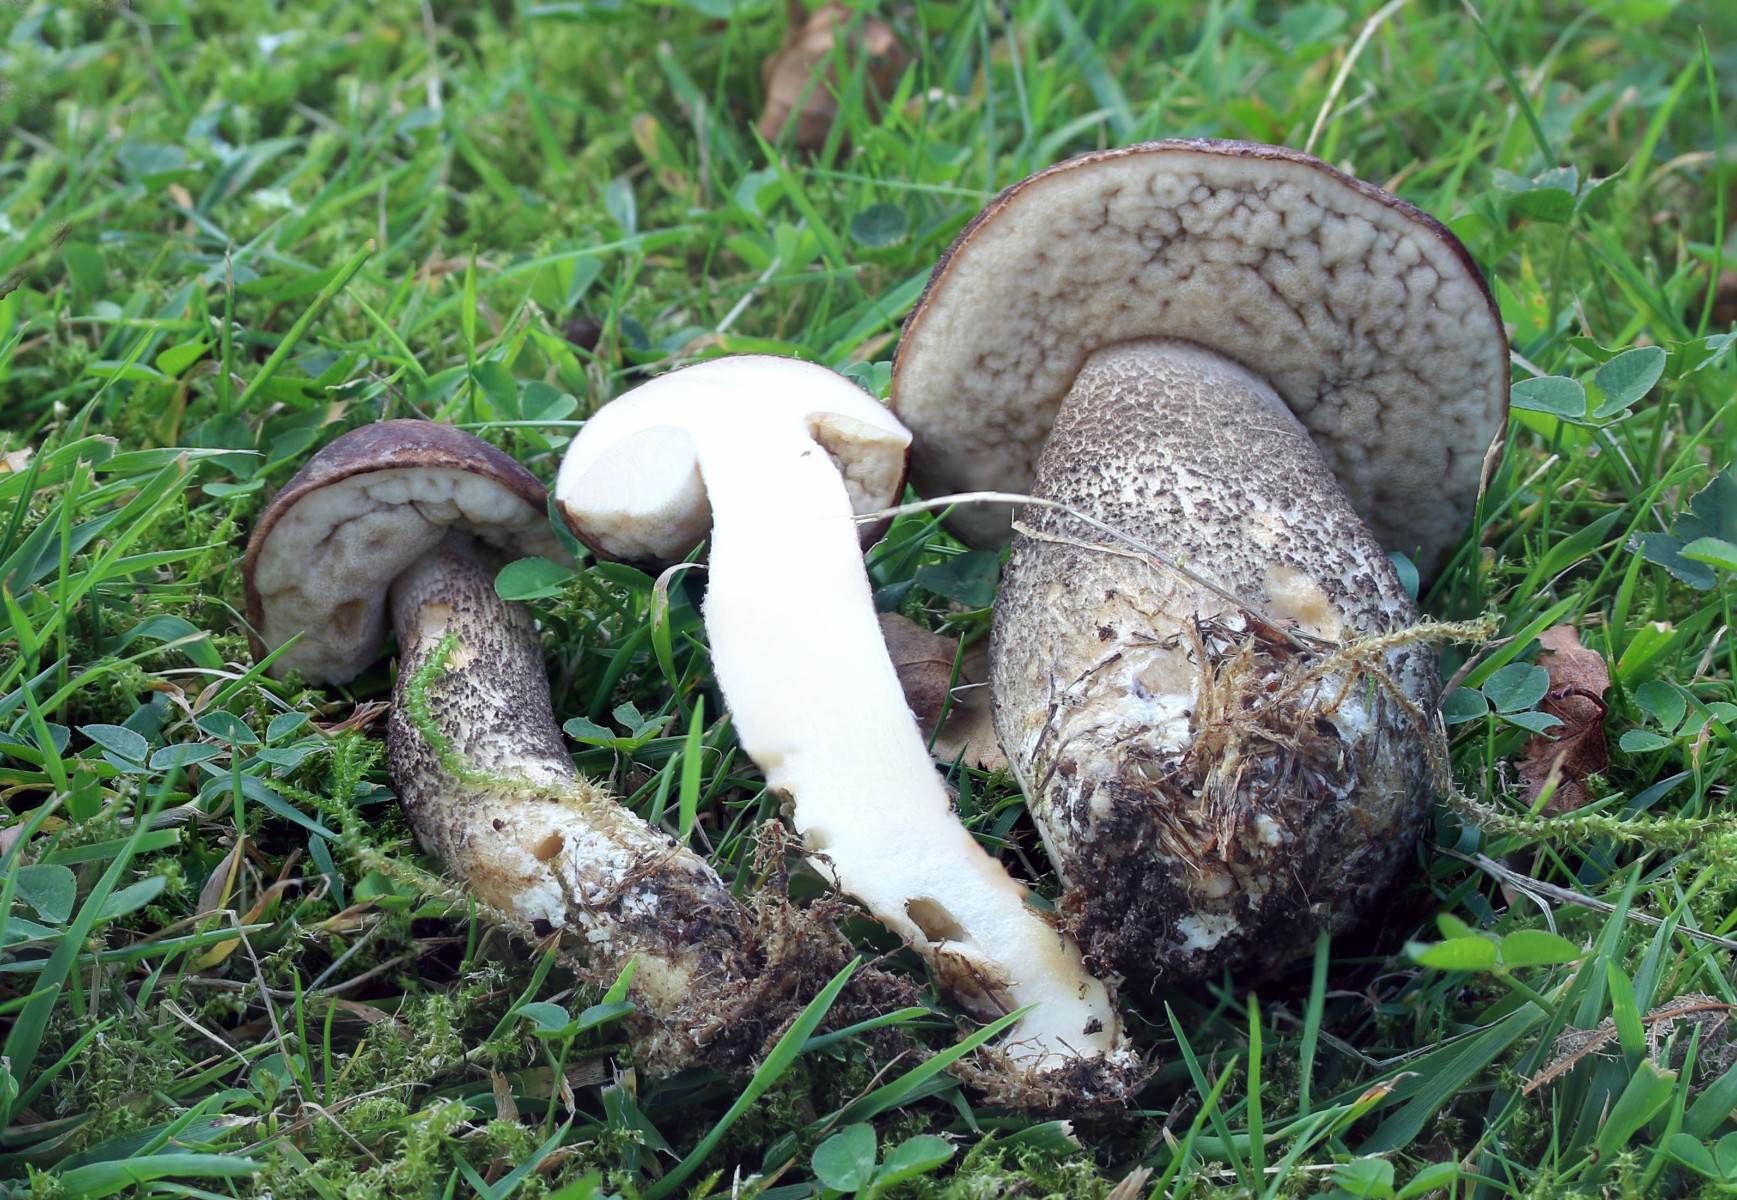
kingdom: Fungi
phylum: Basidiomycota
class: Agaricomycetes
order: Boletales
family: Boletaceae
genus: Leccinum
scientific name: Leccinum melaneum
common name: mørk skælrørhat
